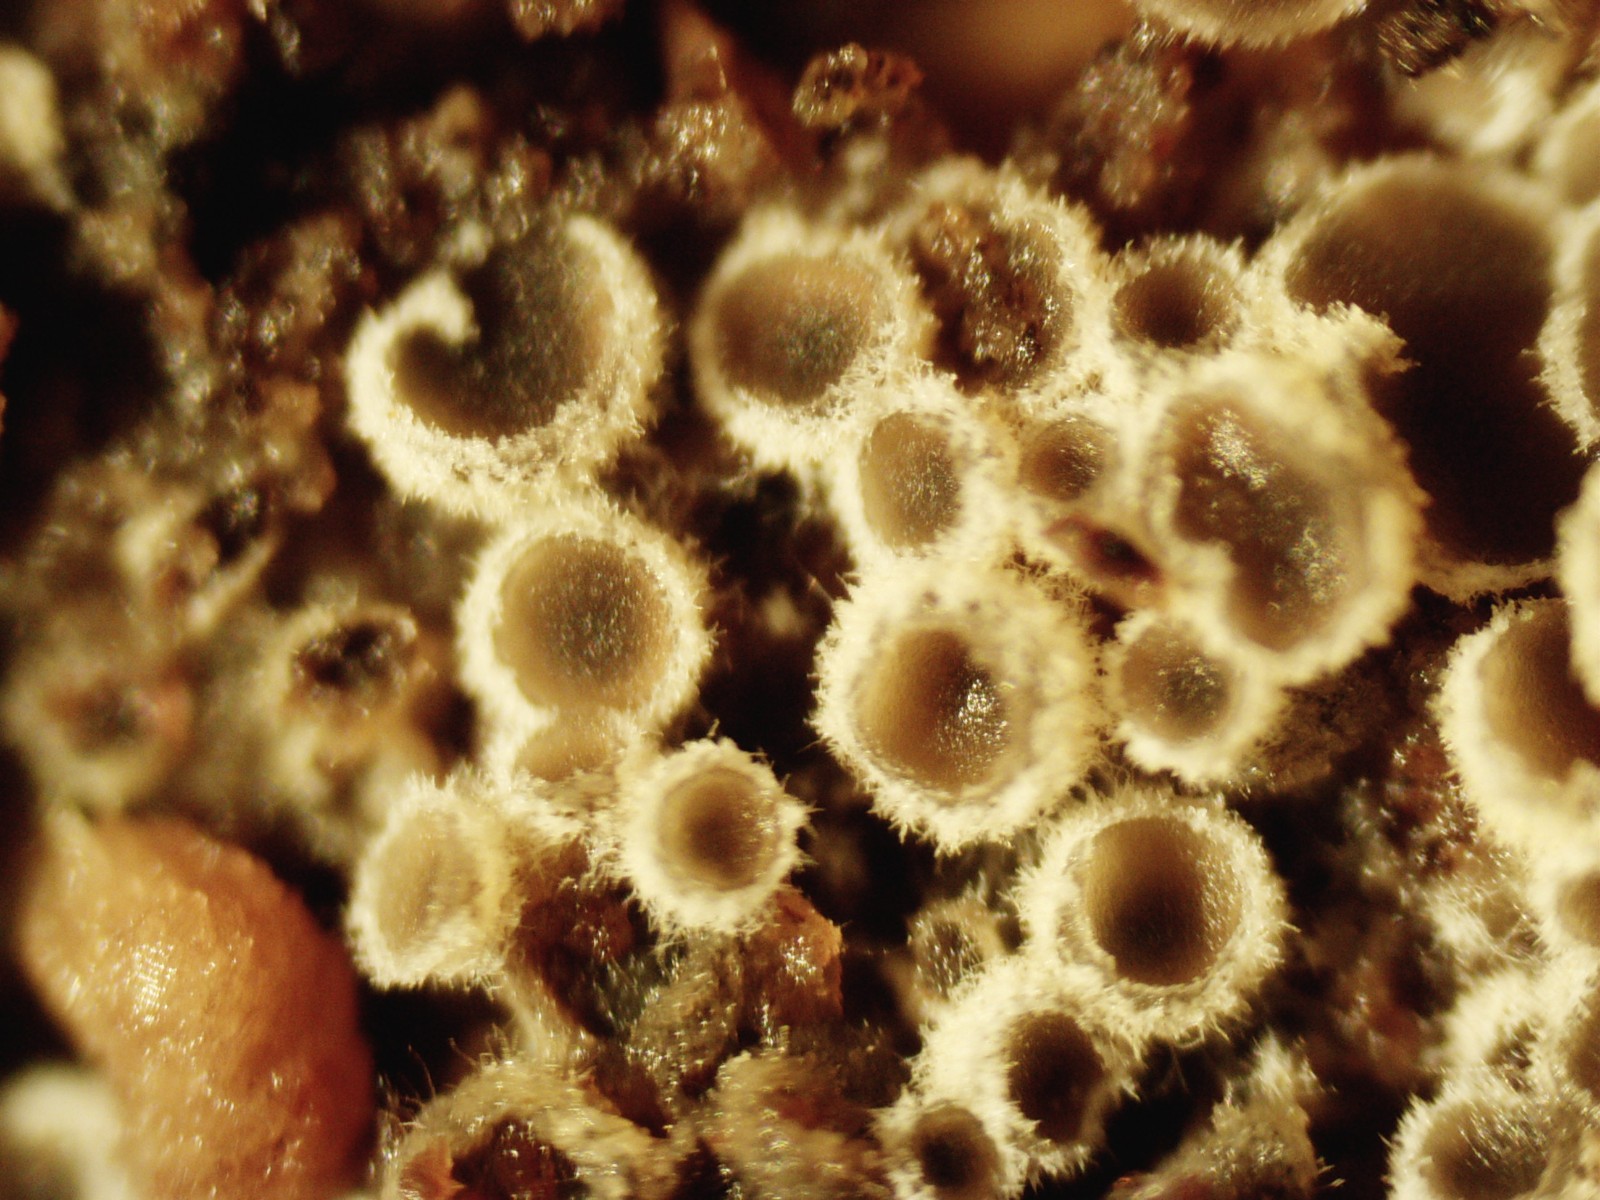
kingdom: Fungi
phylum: Ascomycota
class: Leotiomycetes
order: Helotiales
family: Arachnopezizaceae
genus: Eriopezia
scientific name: Eriopezia caesia
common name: ege-spindskive
